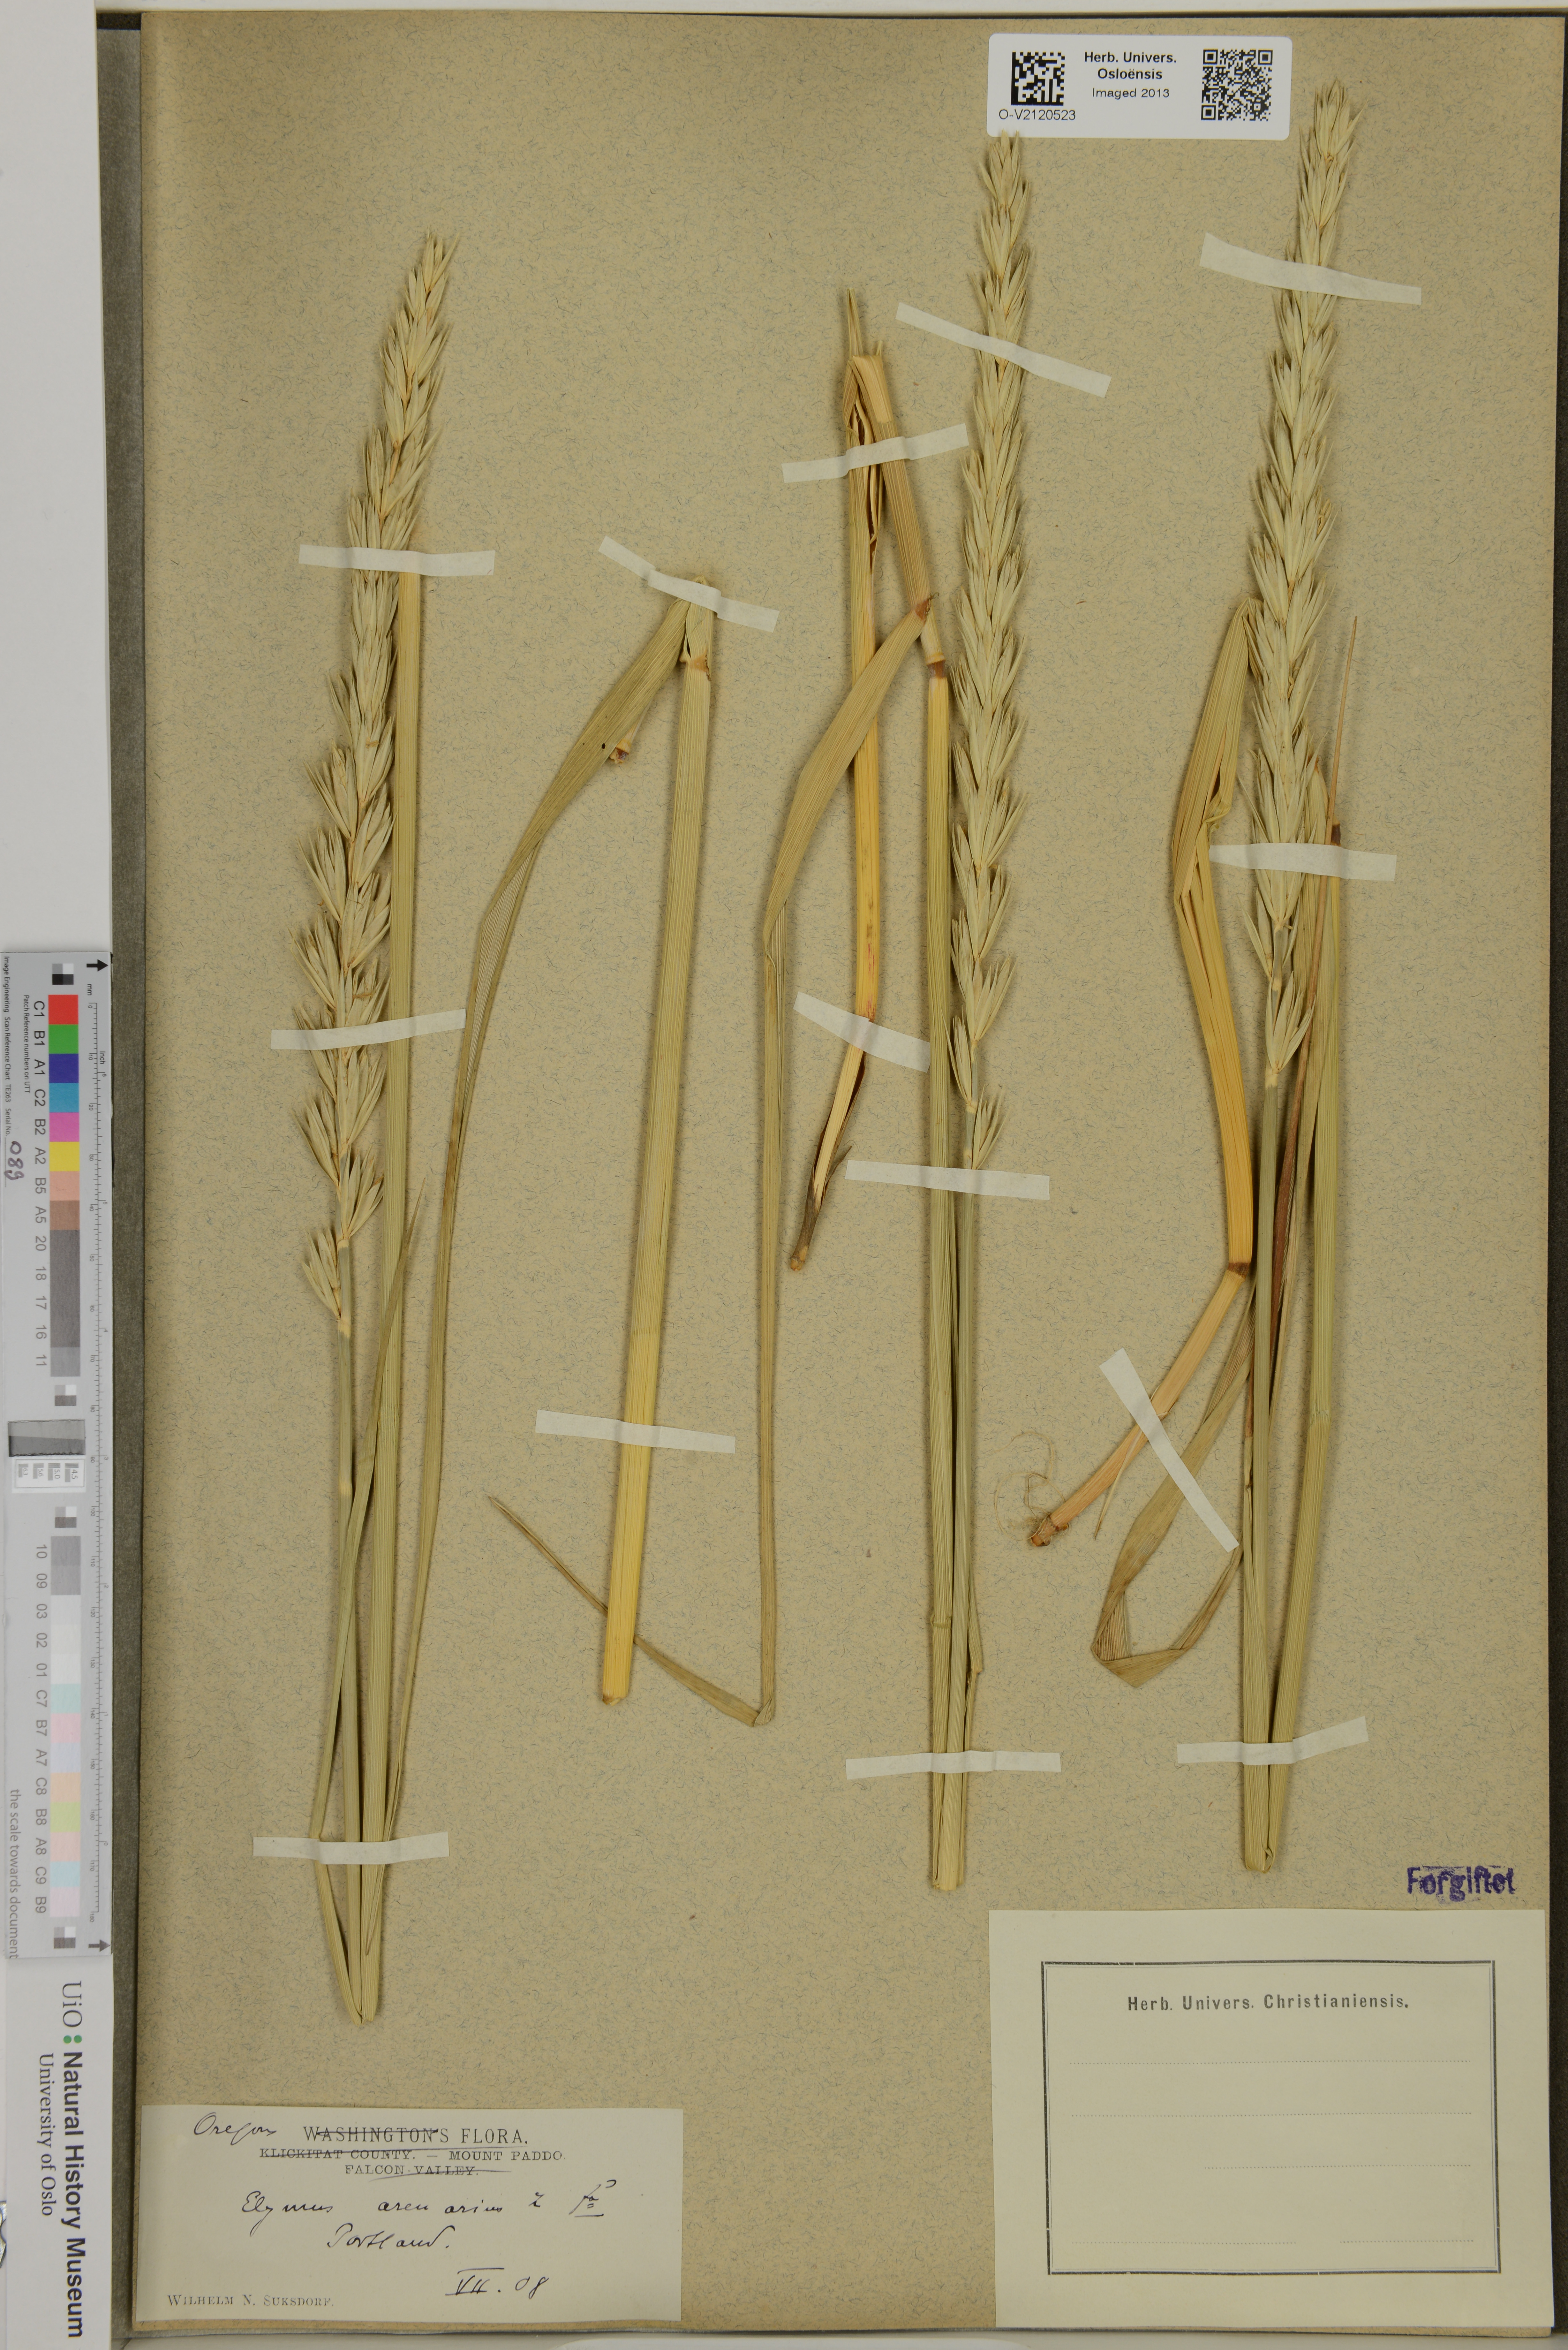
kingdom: Plantae
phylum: Tracheophyta
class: Liliopsida
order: Poales
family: Poaceae
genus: Leymus
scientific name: Leymus arenarius
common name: Lyme-grass
